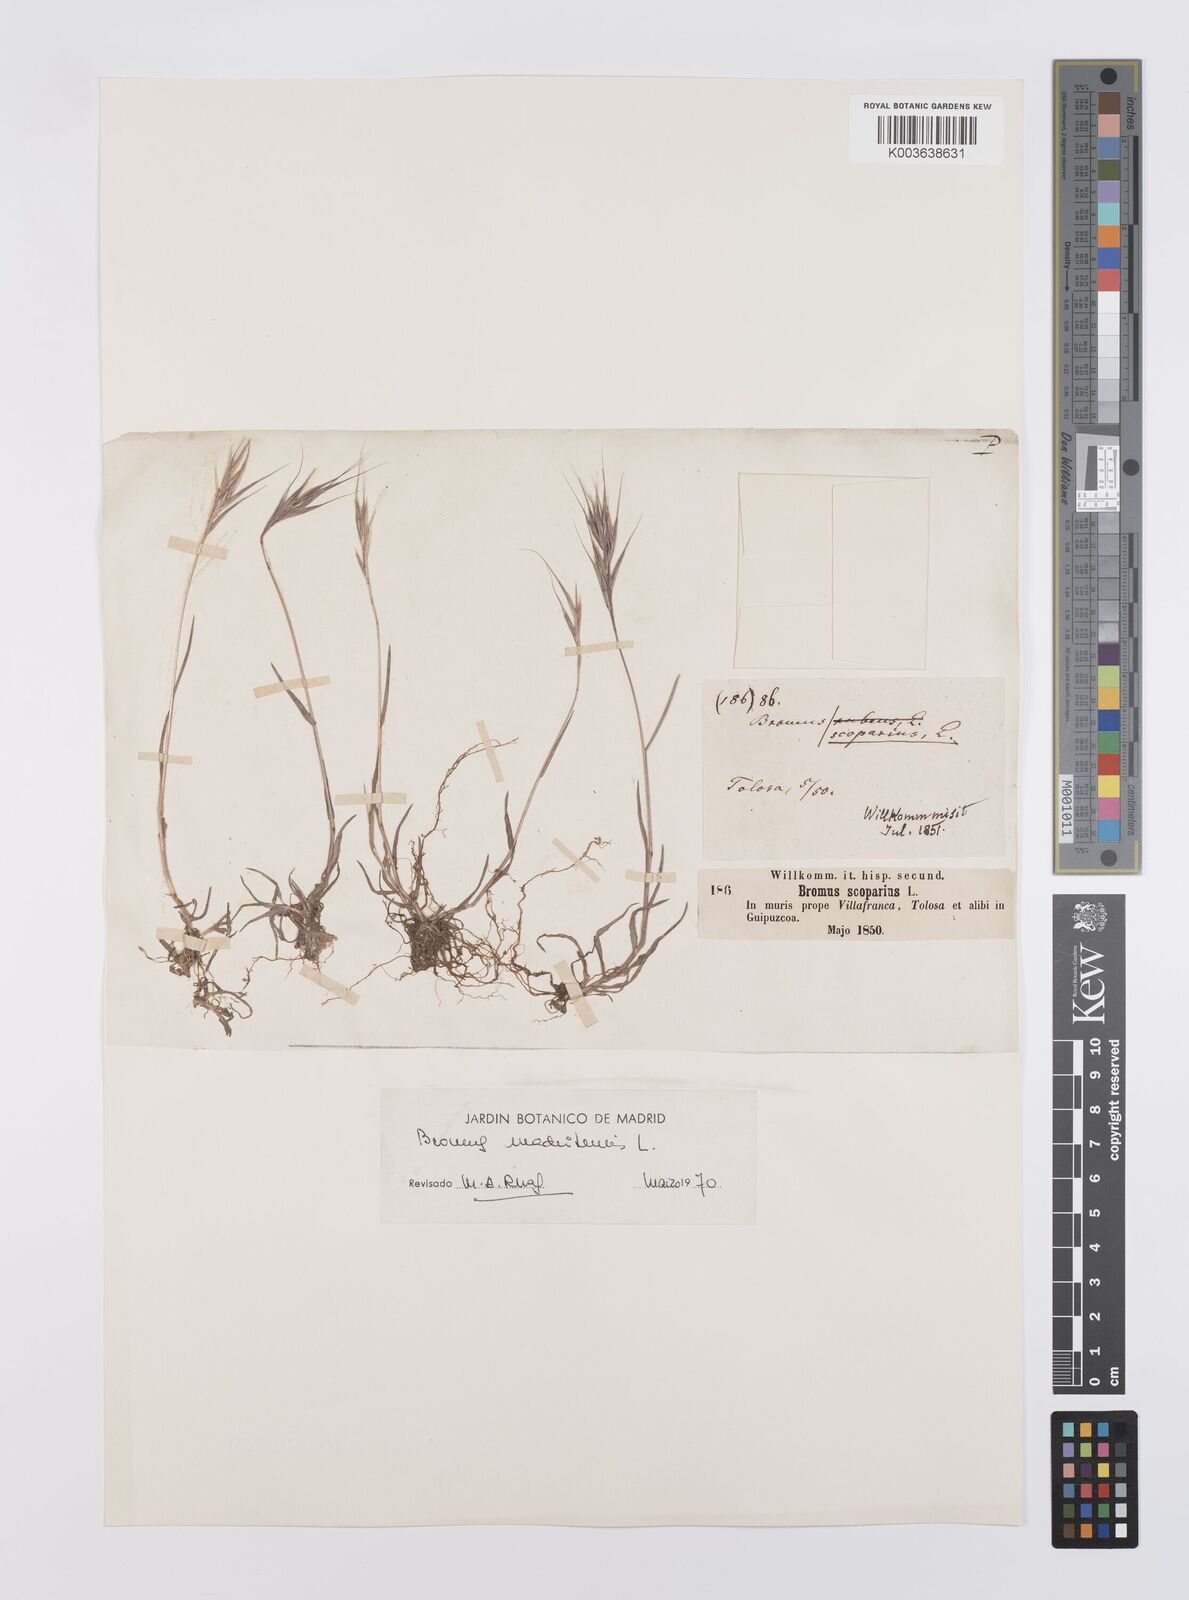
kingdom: Plantae
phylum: Tracheophyta
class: Liliopsida
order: Poales
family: Poaceae
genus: Bromus
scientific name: Bromus madritensis
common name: Compact brome
